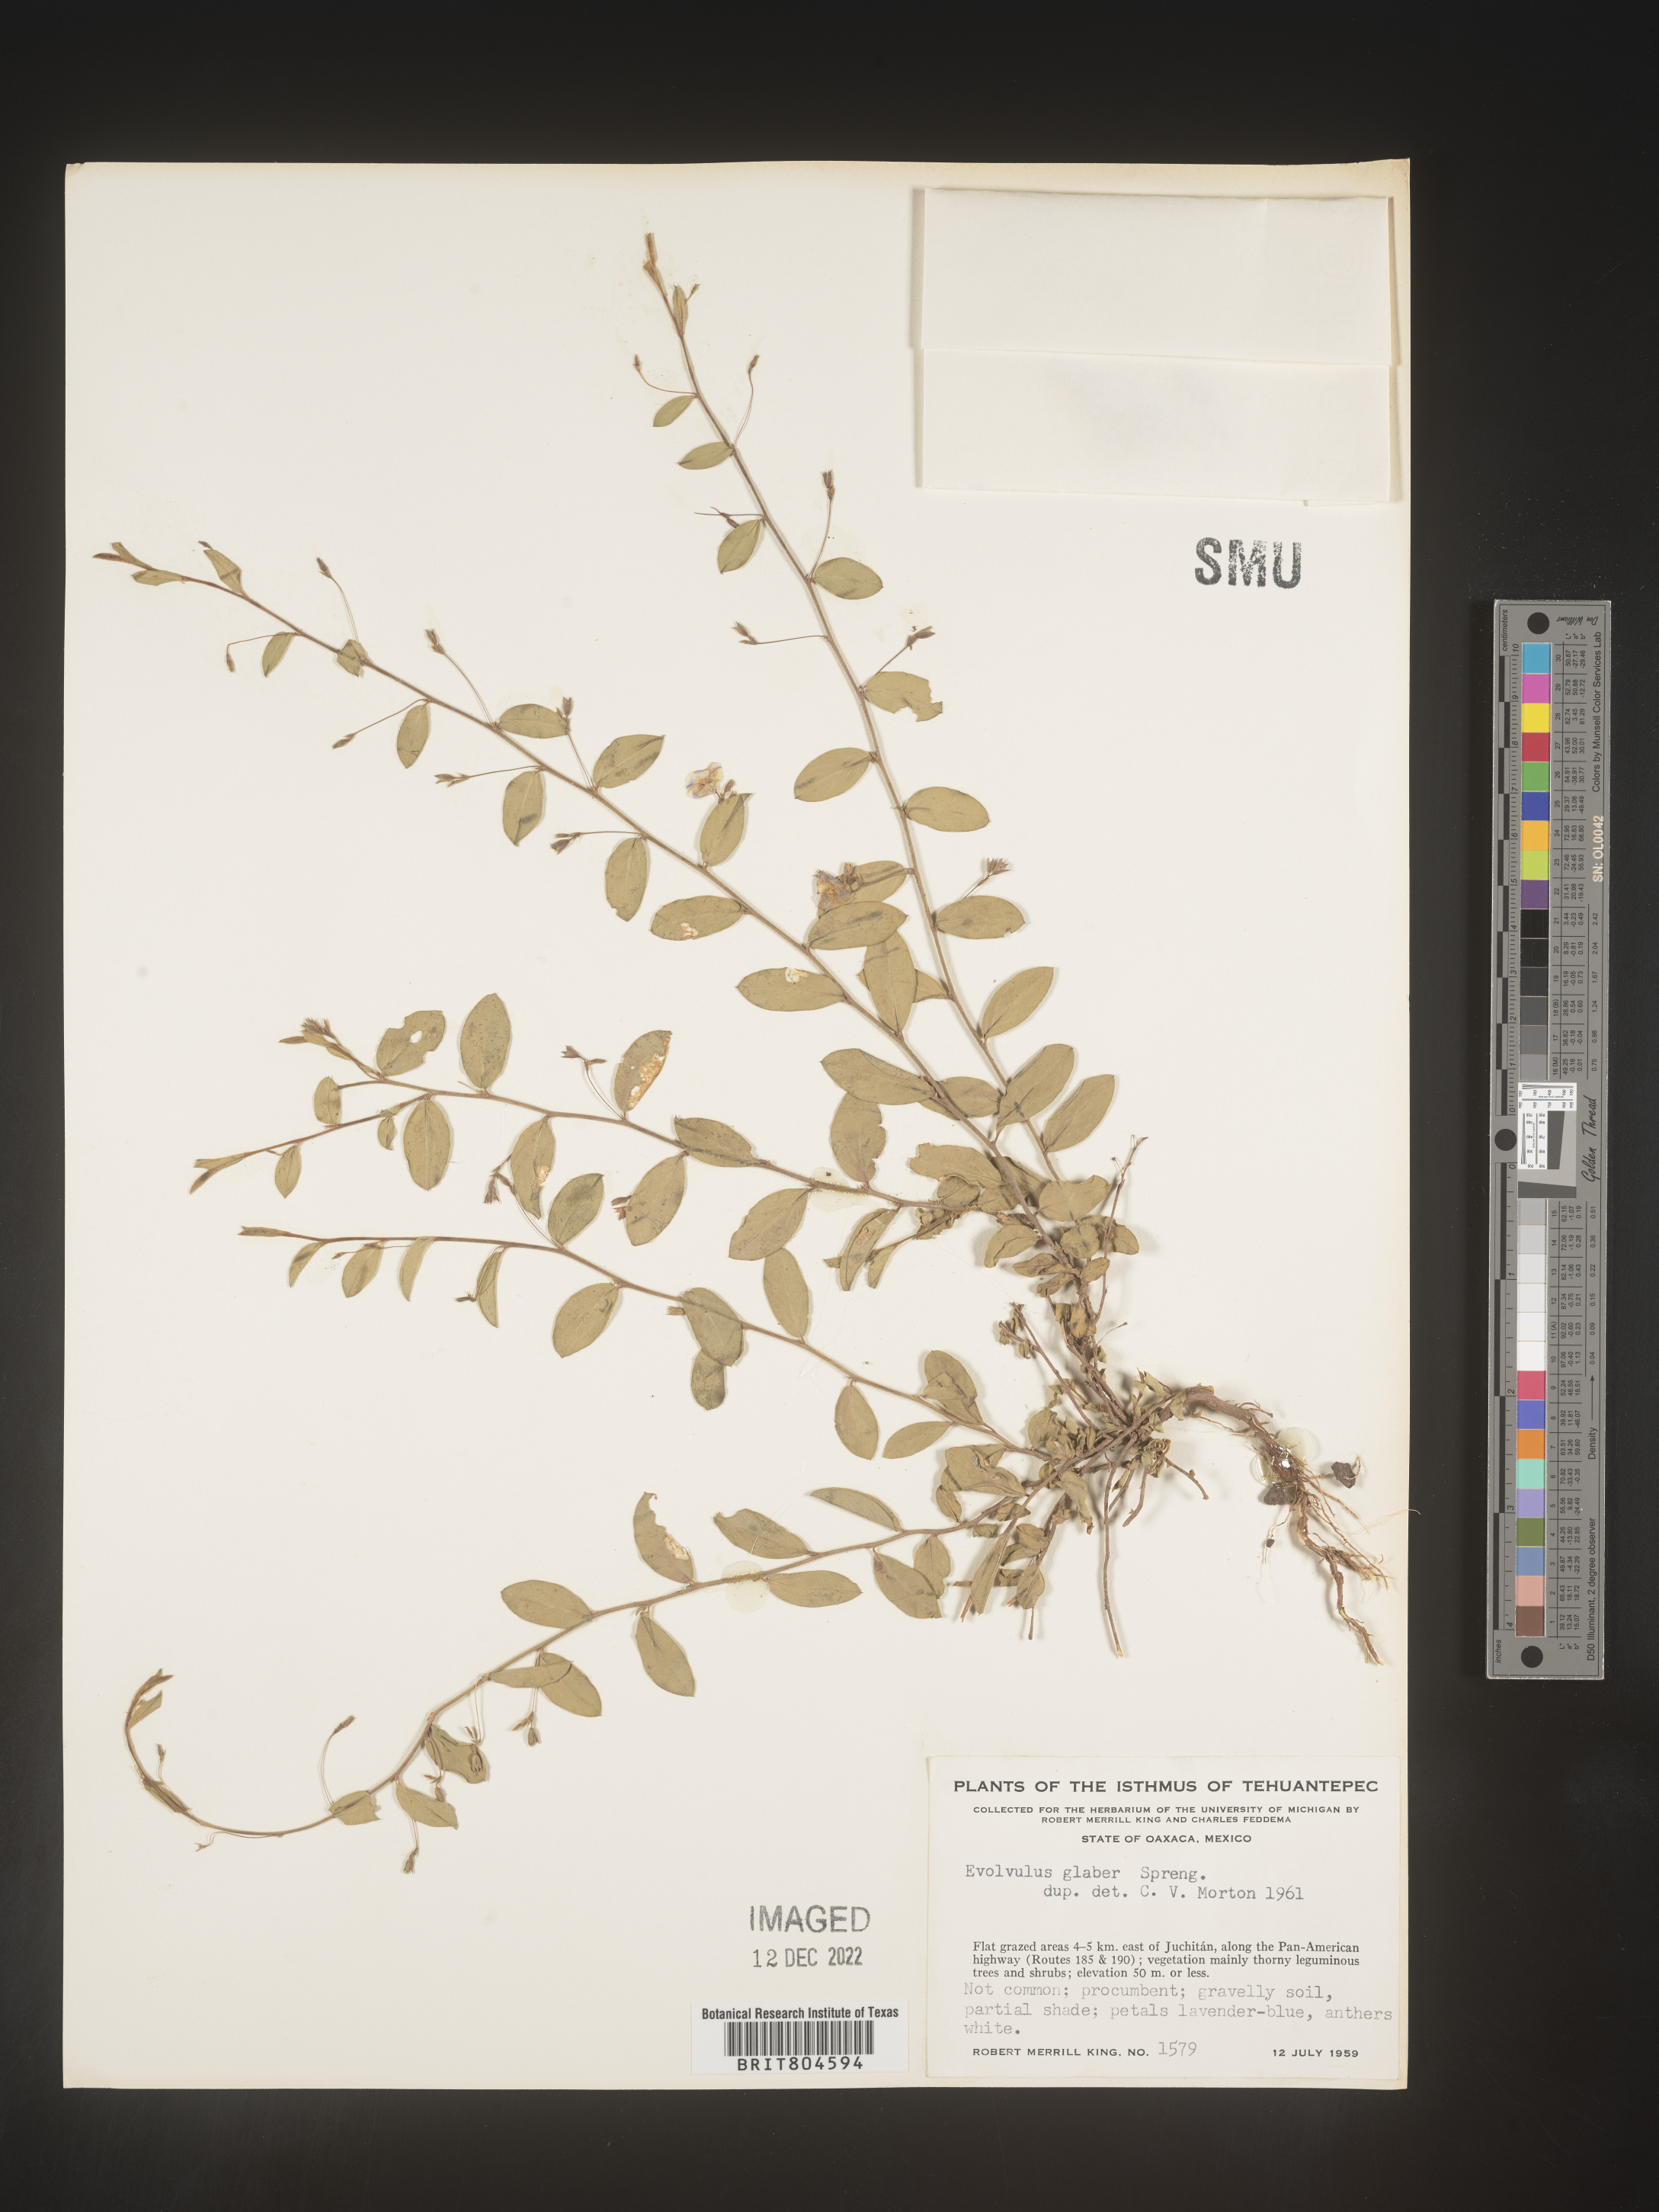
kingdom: Plantae
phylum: Tracheophyta
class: Magnoliopsida
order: Solanales
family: Convolvulaceae
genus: Evolvulus
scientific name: Evolvulus
